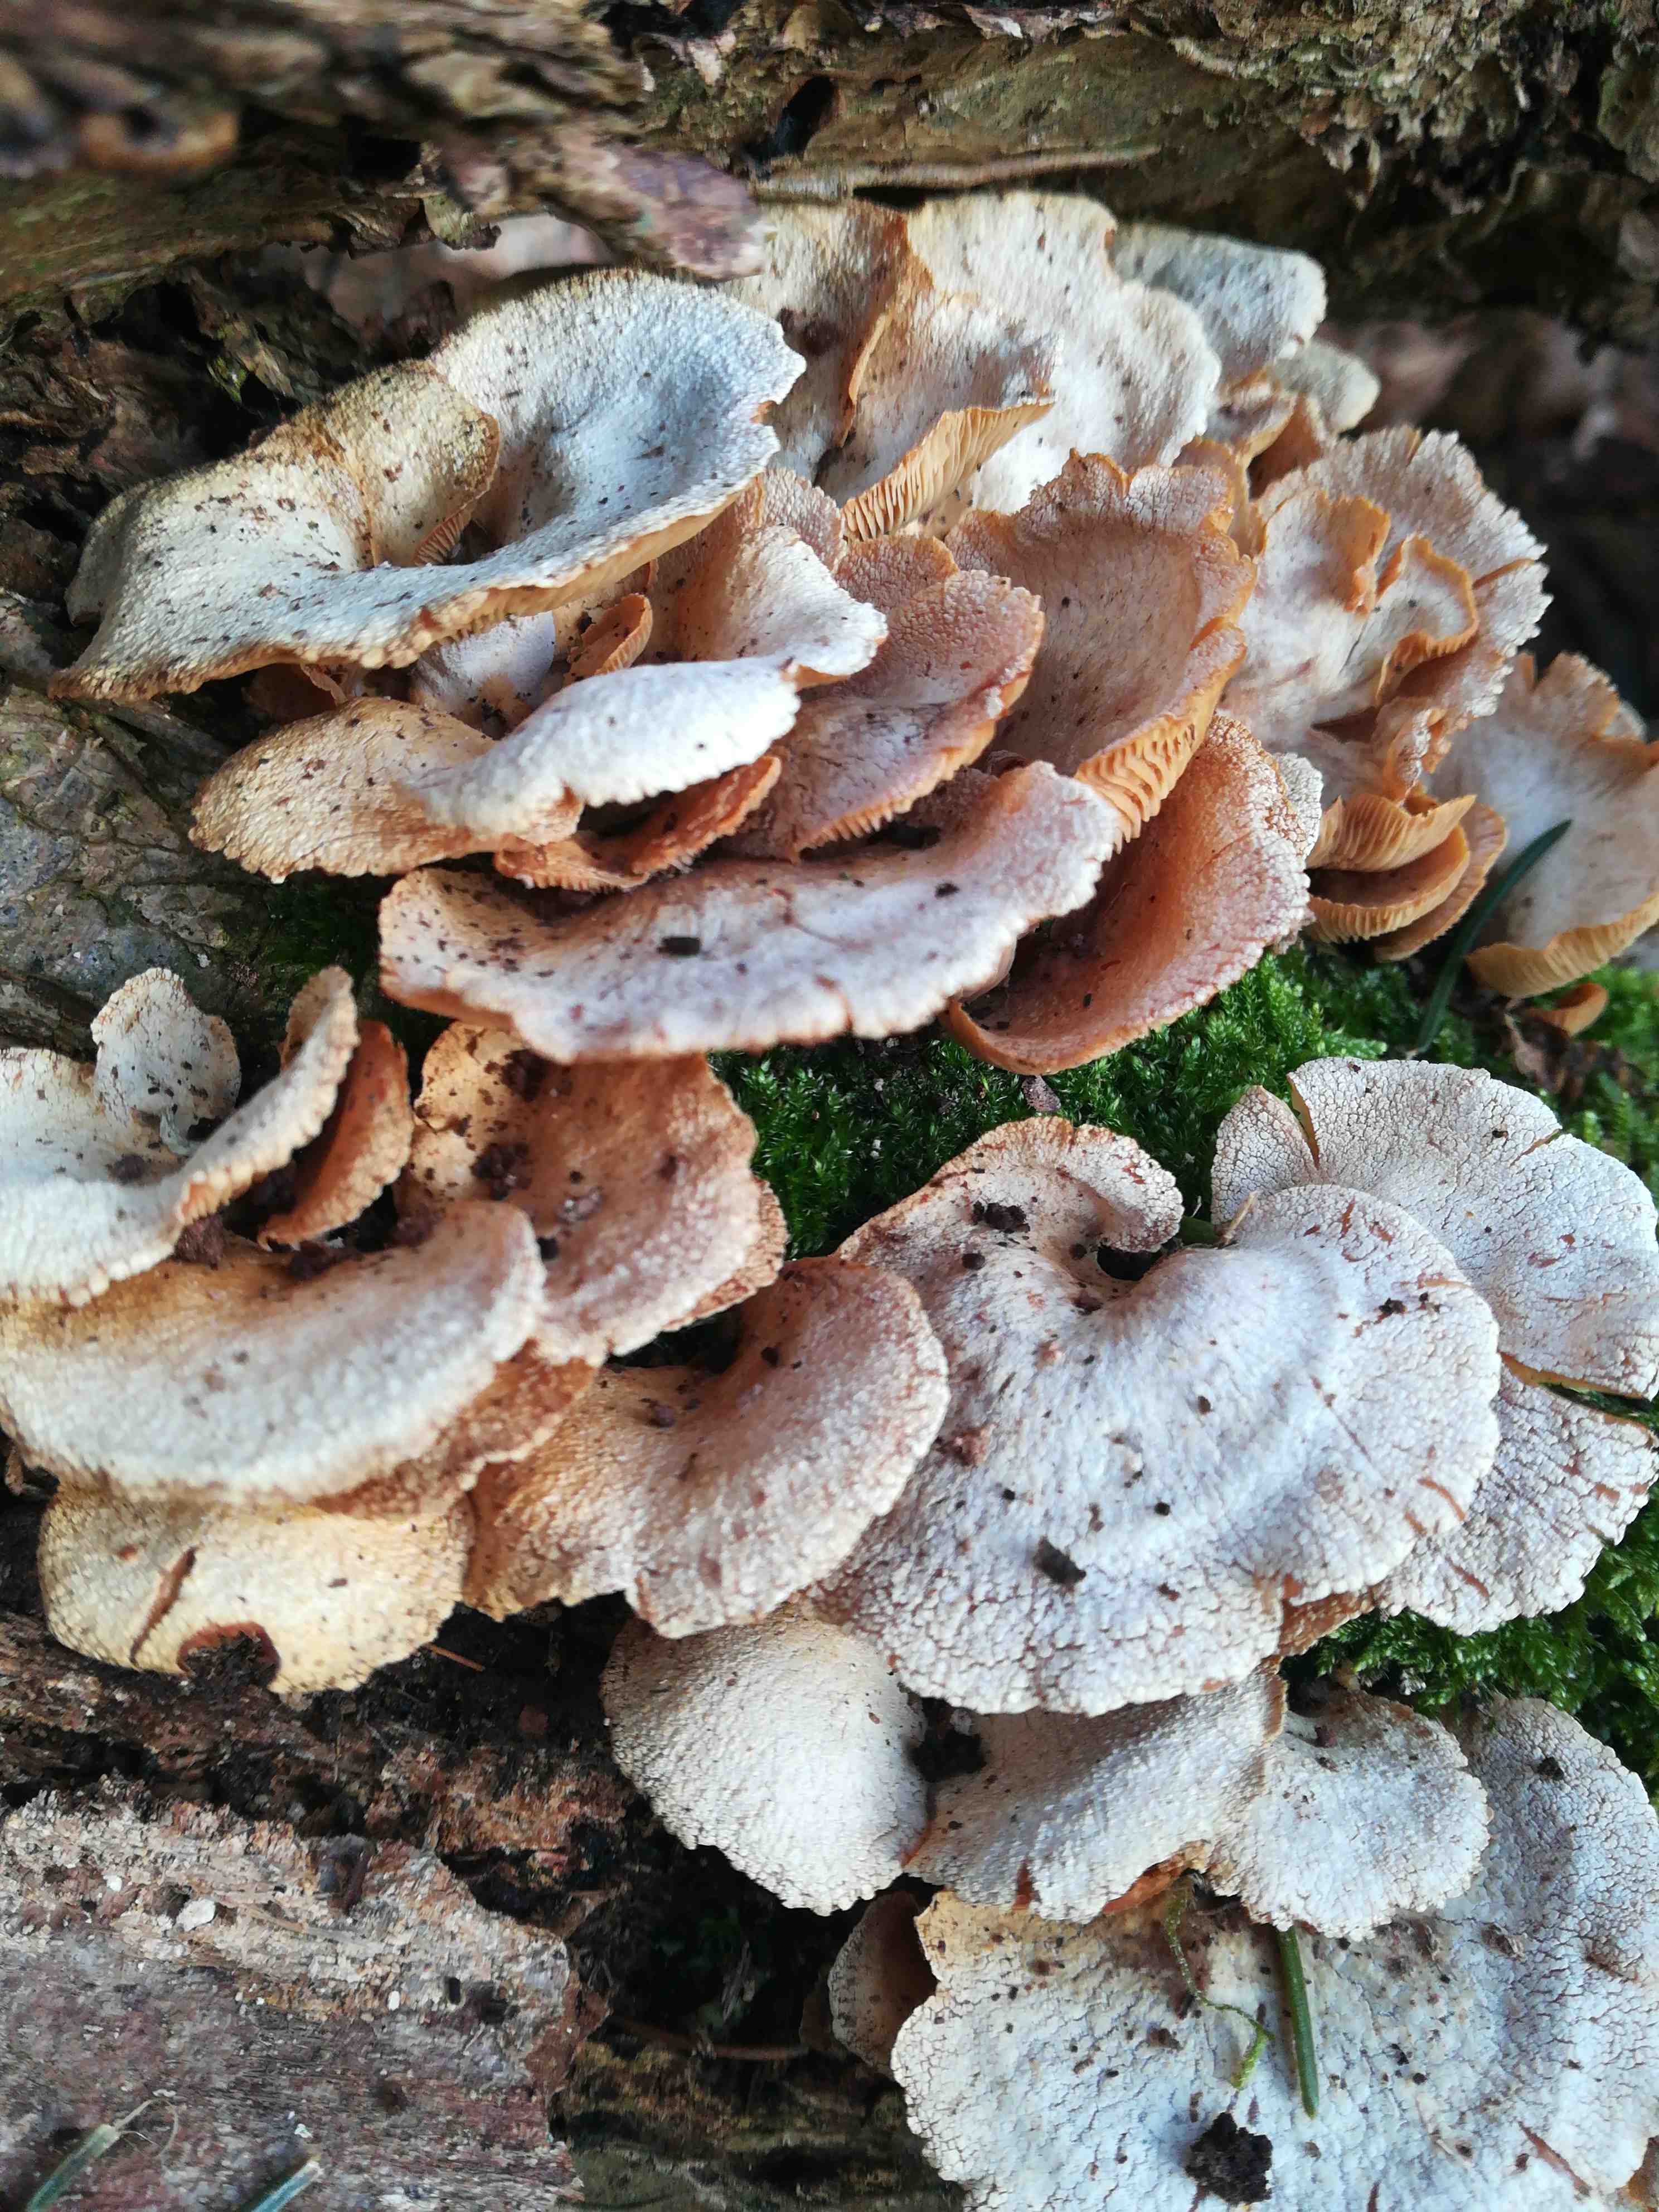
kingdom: Fungi
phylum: Basidiomycota
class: Agaricomycetes
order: Agaricales
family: Mycenaceae
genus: Panellus
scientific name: Panellus stipticus
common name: kliddet epaulethat
